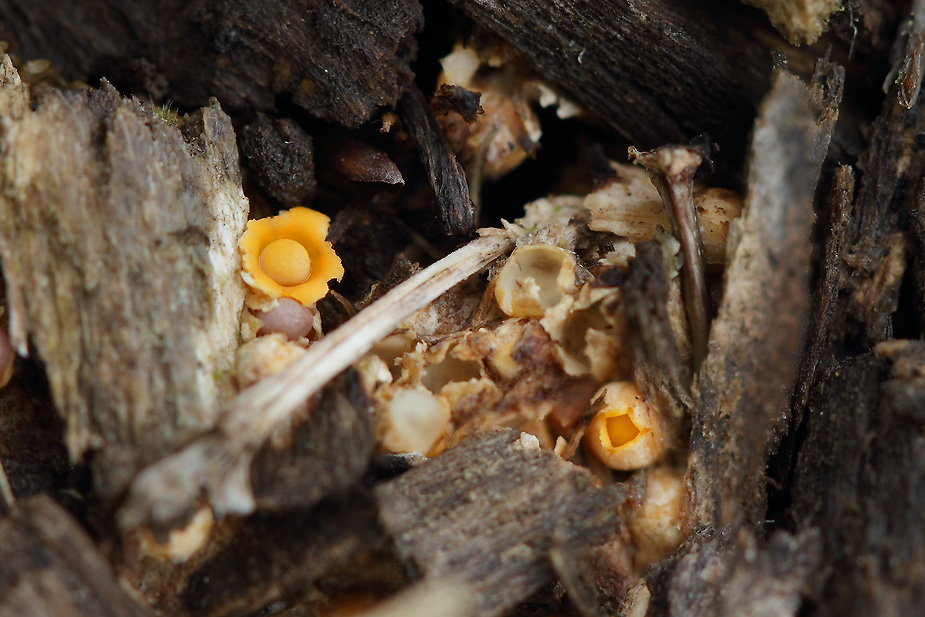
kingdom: Fungi
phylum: Basidiomycota
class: Agaricomycetes
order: Geastrales
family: Geastraceae
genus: Sphaerobolus
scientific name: Sphaerobolus stellatus
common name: bombekaster
